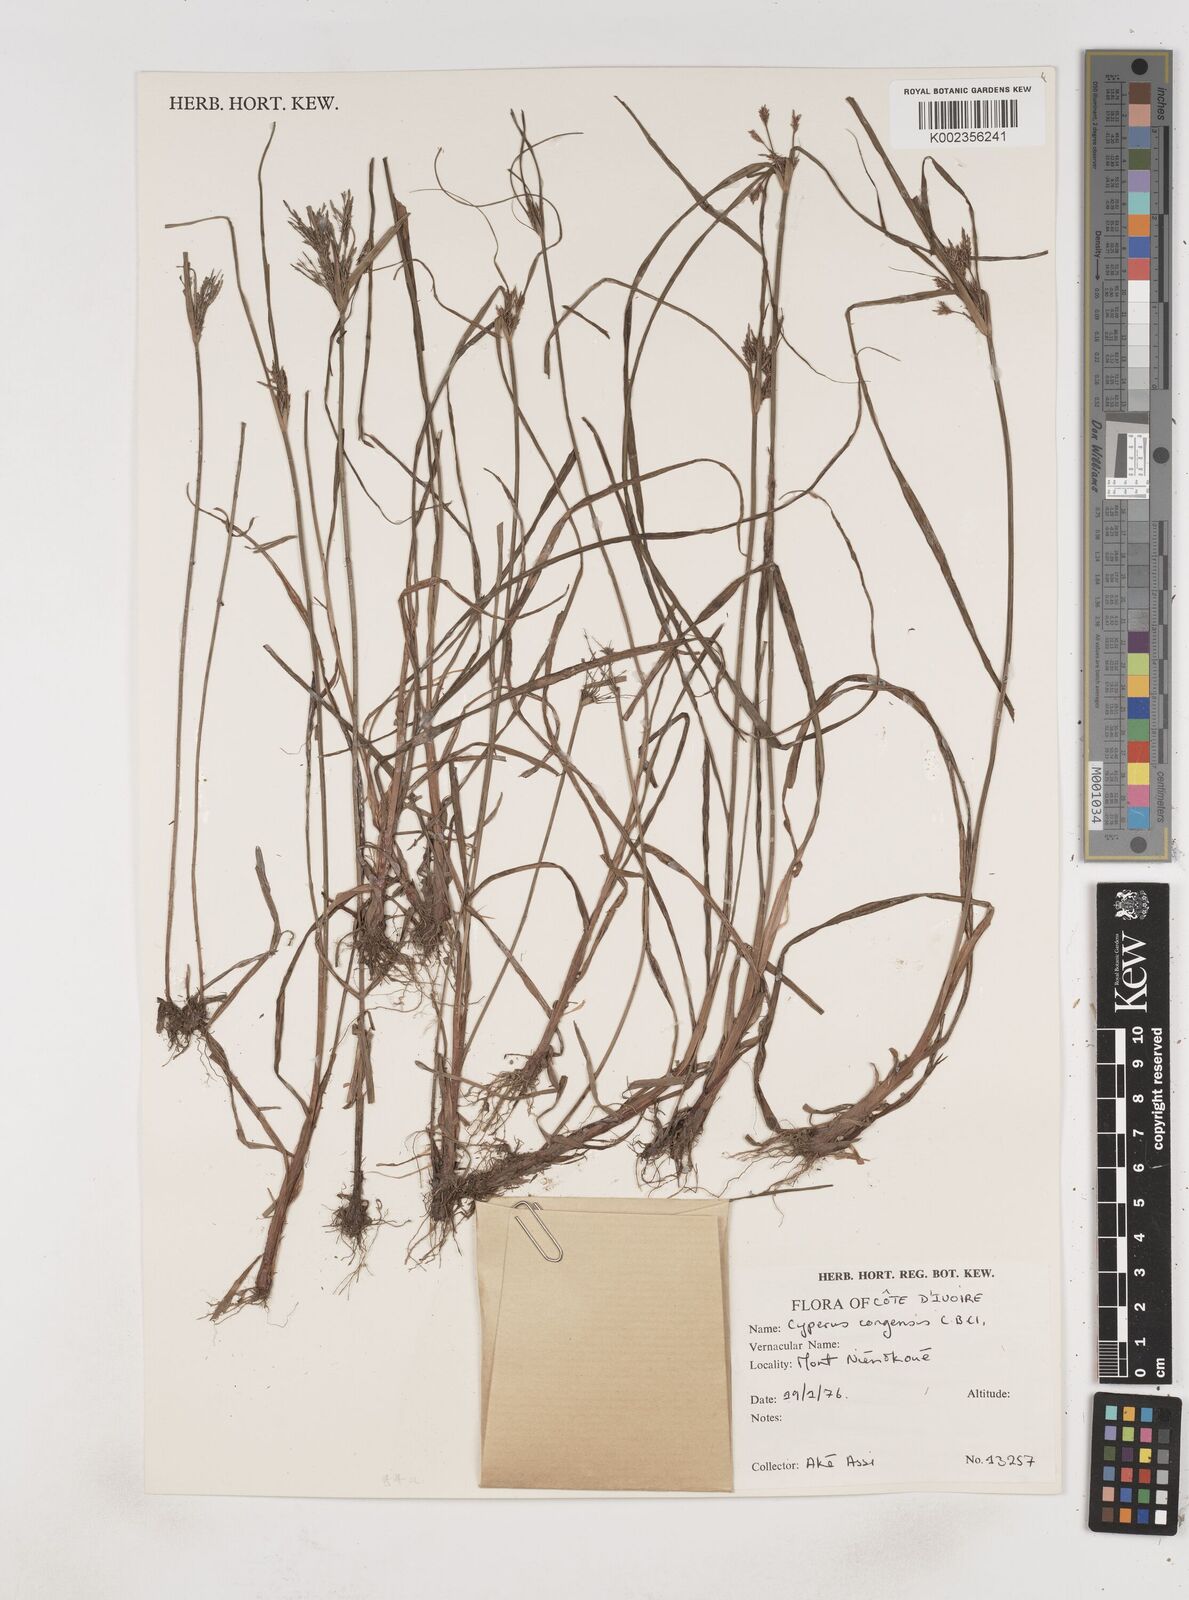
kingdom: Plantae
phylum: Tracheophyta
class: Liliopsida
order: Poales
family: Cyperaceae
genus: Cyperus
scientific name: Cyperus congensis
